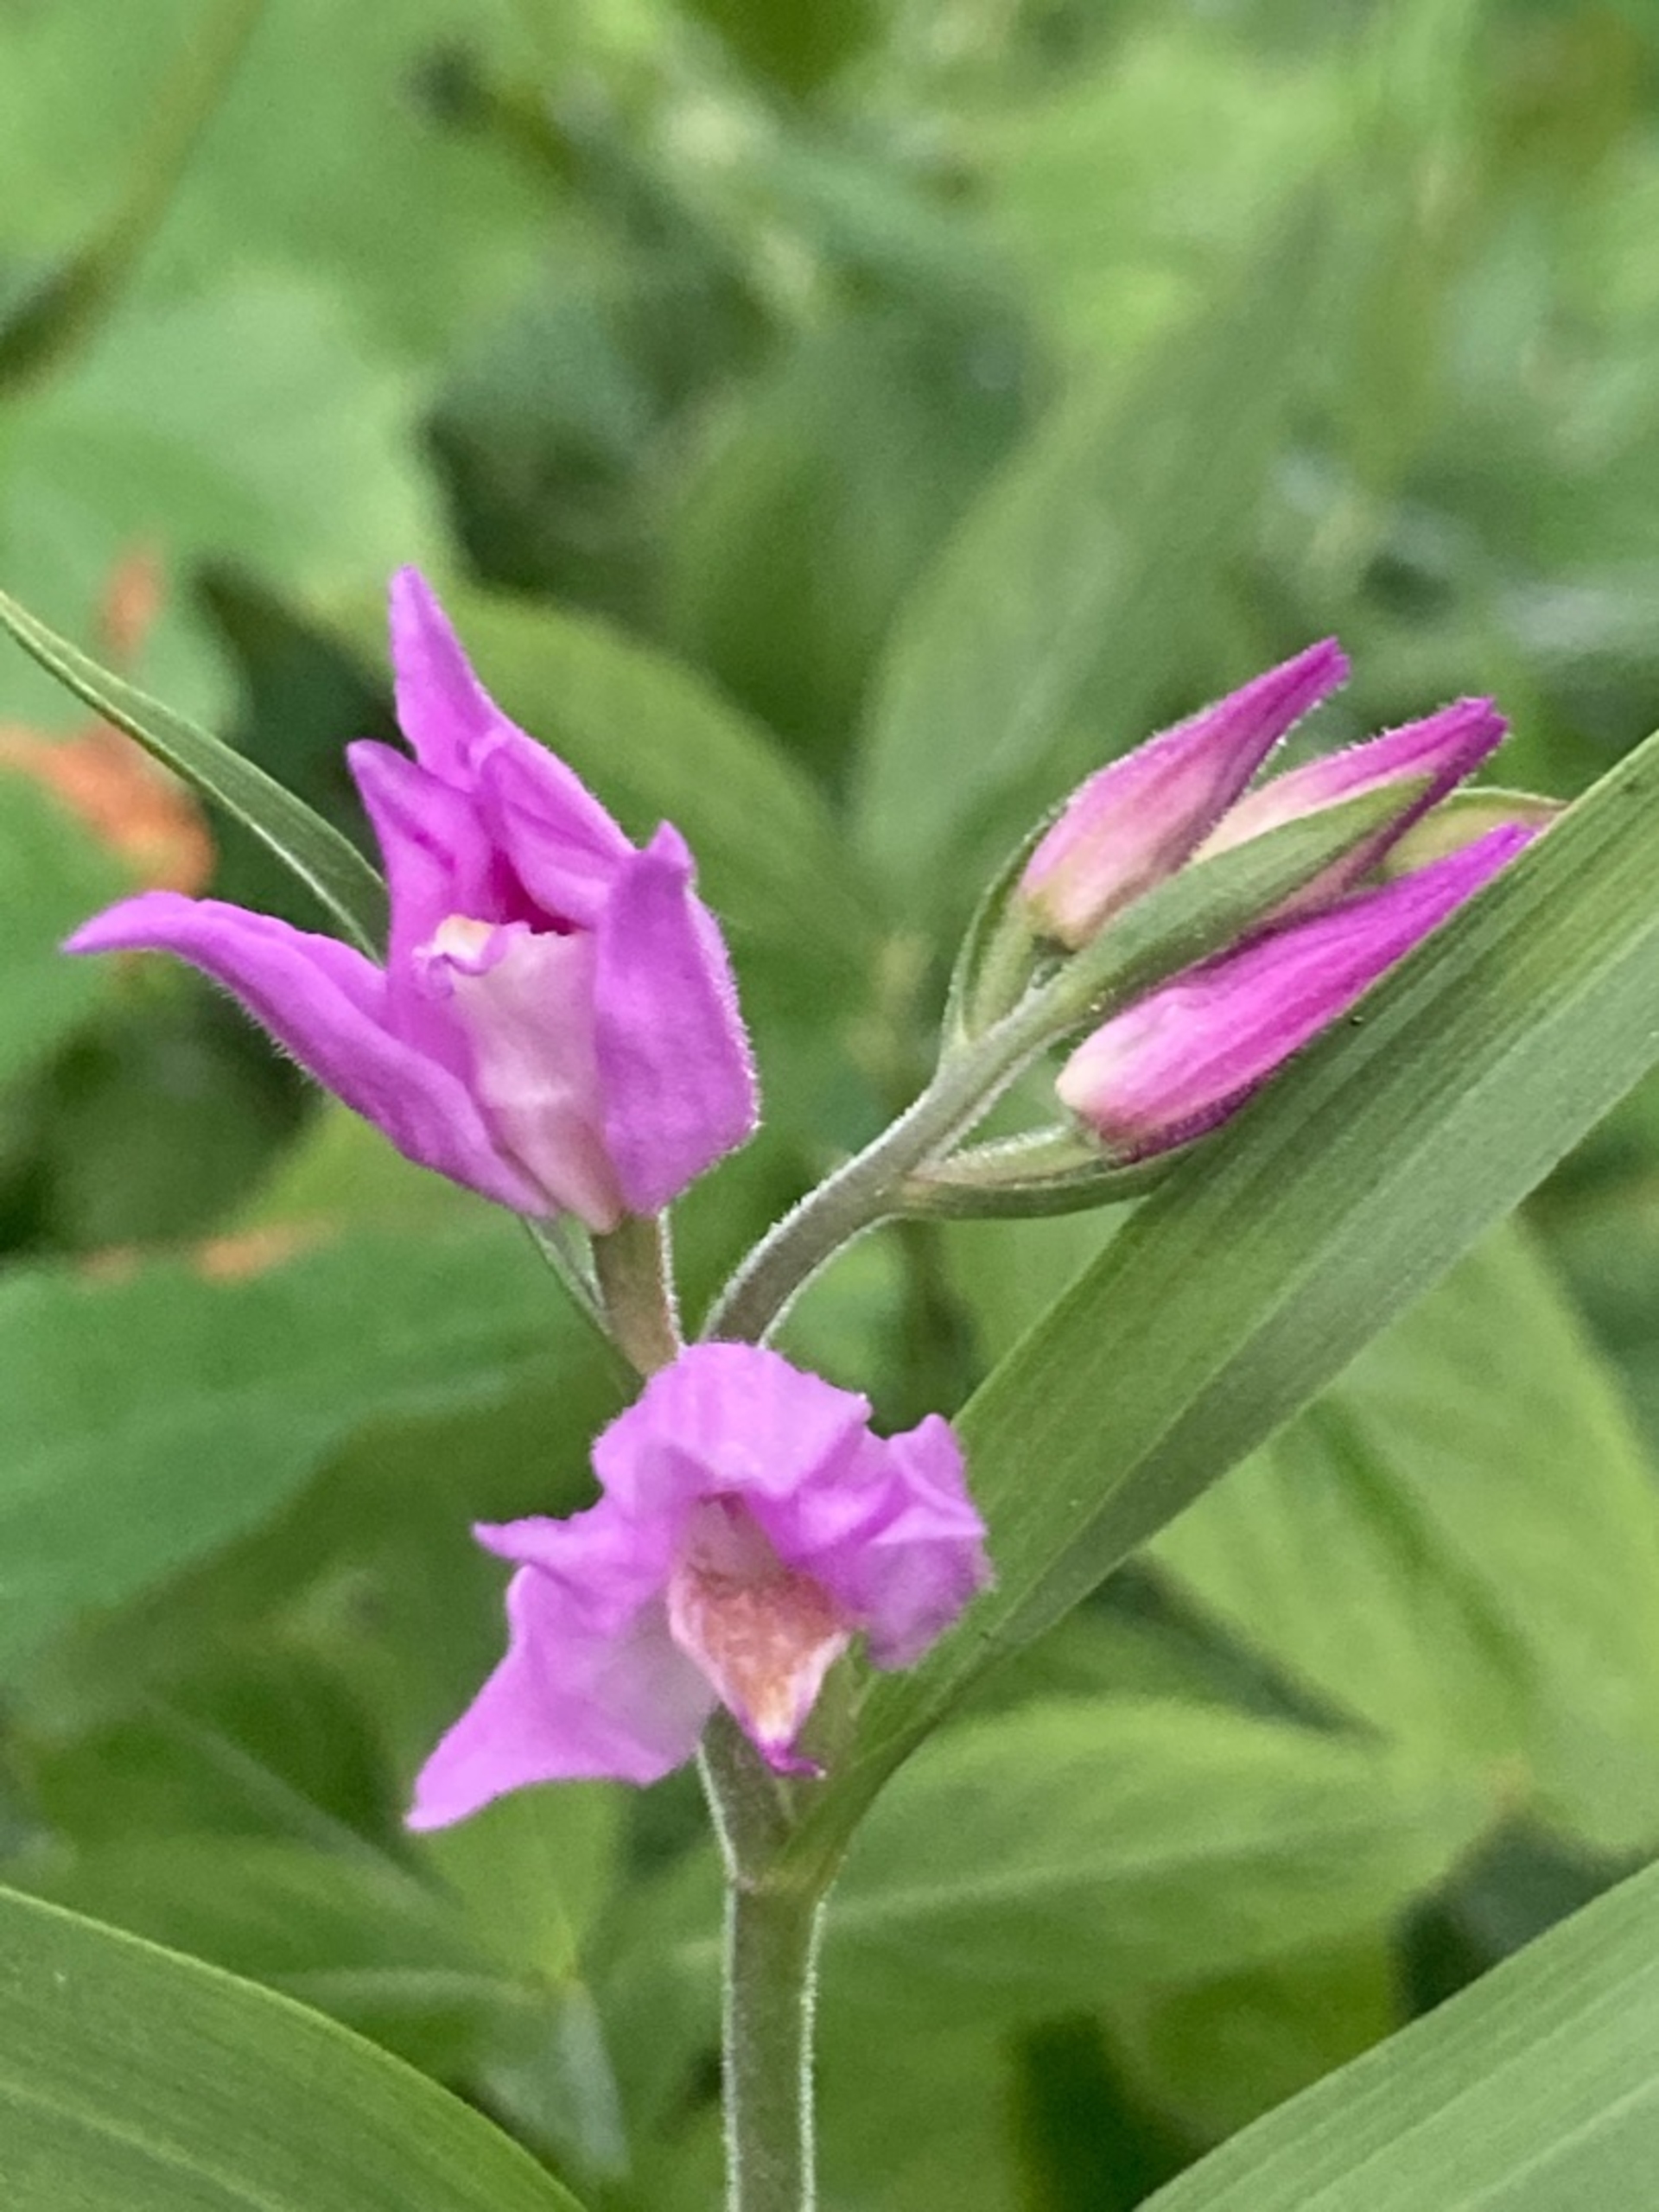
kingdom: Plantae
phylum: Tracheophyta
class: Liliopsida
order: Asparagales
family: Orchidaceae
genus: Cephalanthera
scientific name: Cephalanthera rubra
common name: Rød skovlilje
